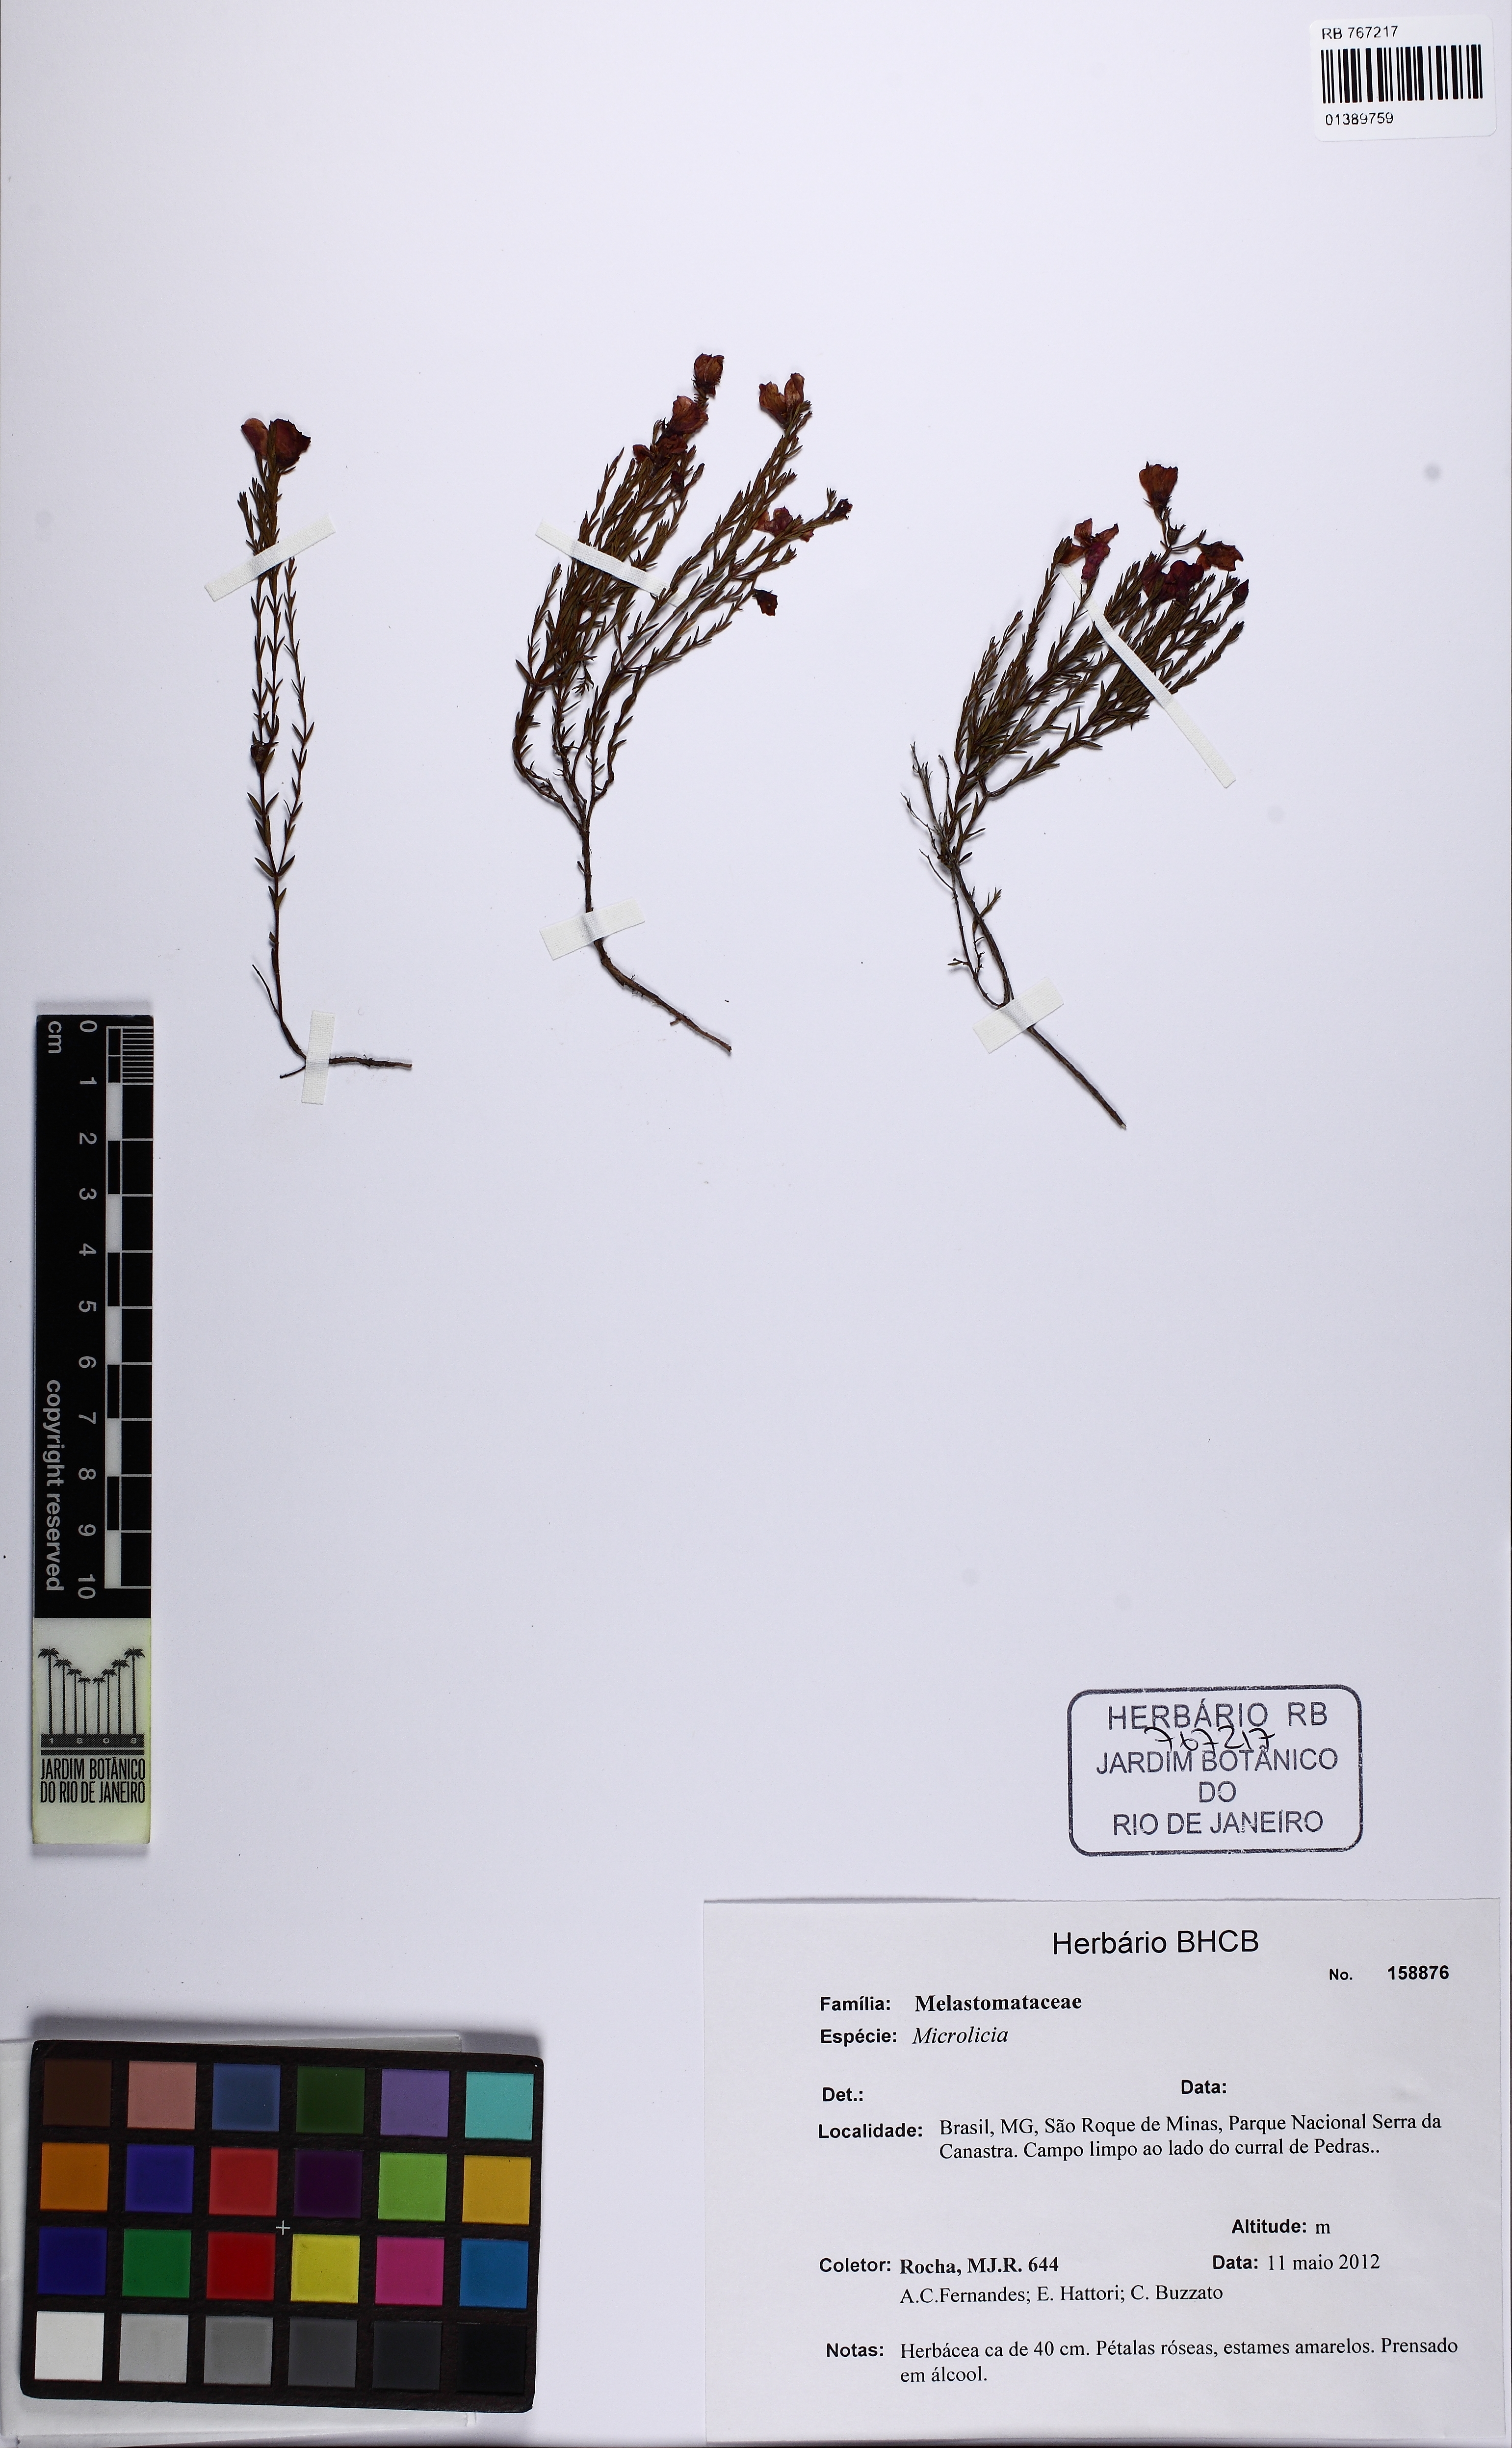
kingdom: Plantae
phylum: Tracheophyta
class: Magnoliopsida
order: Myrtales
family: Melastomataceae
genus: Microlicia
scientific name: Microlicia
